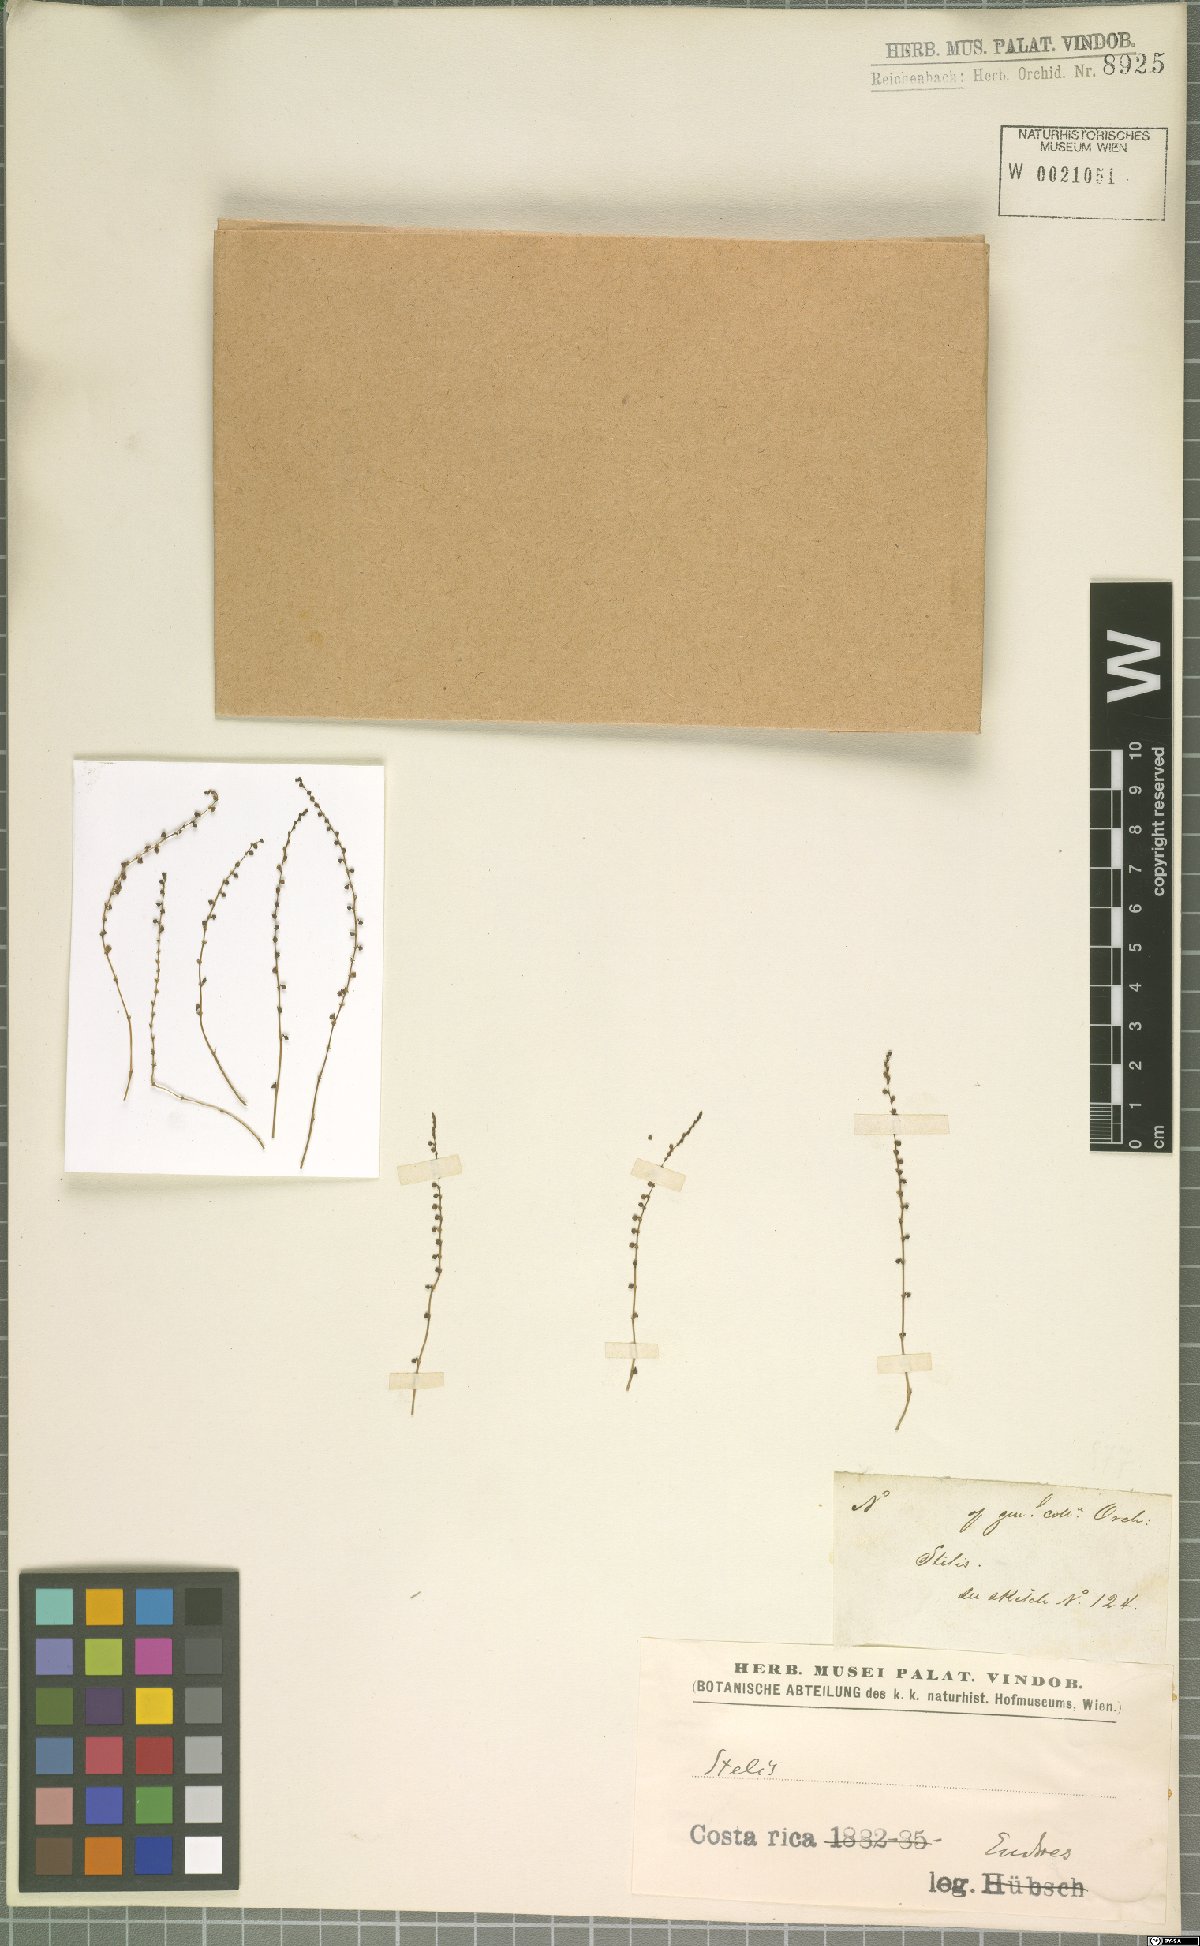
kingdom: Plantae
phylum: Tracheophyta
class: Liliopsida
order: Asparagales
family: Orchidaceae
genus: Stelis
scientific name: Stelis
